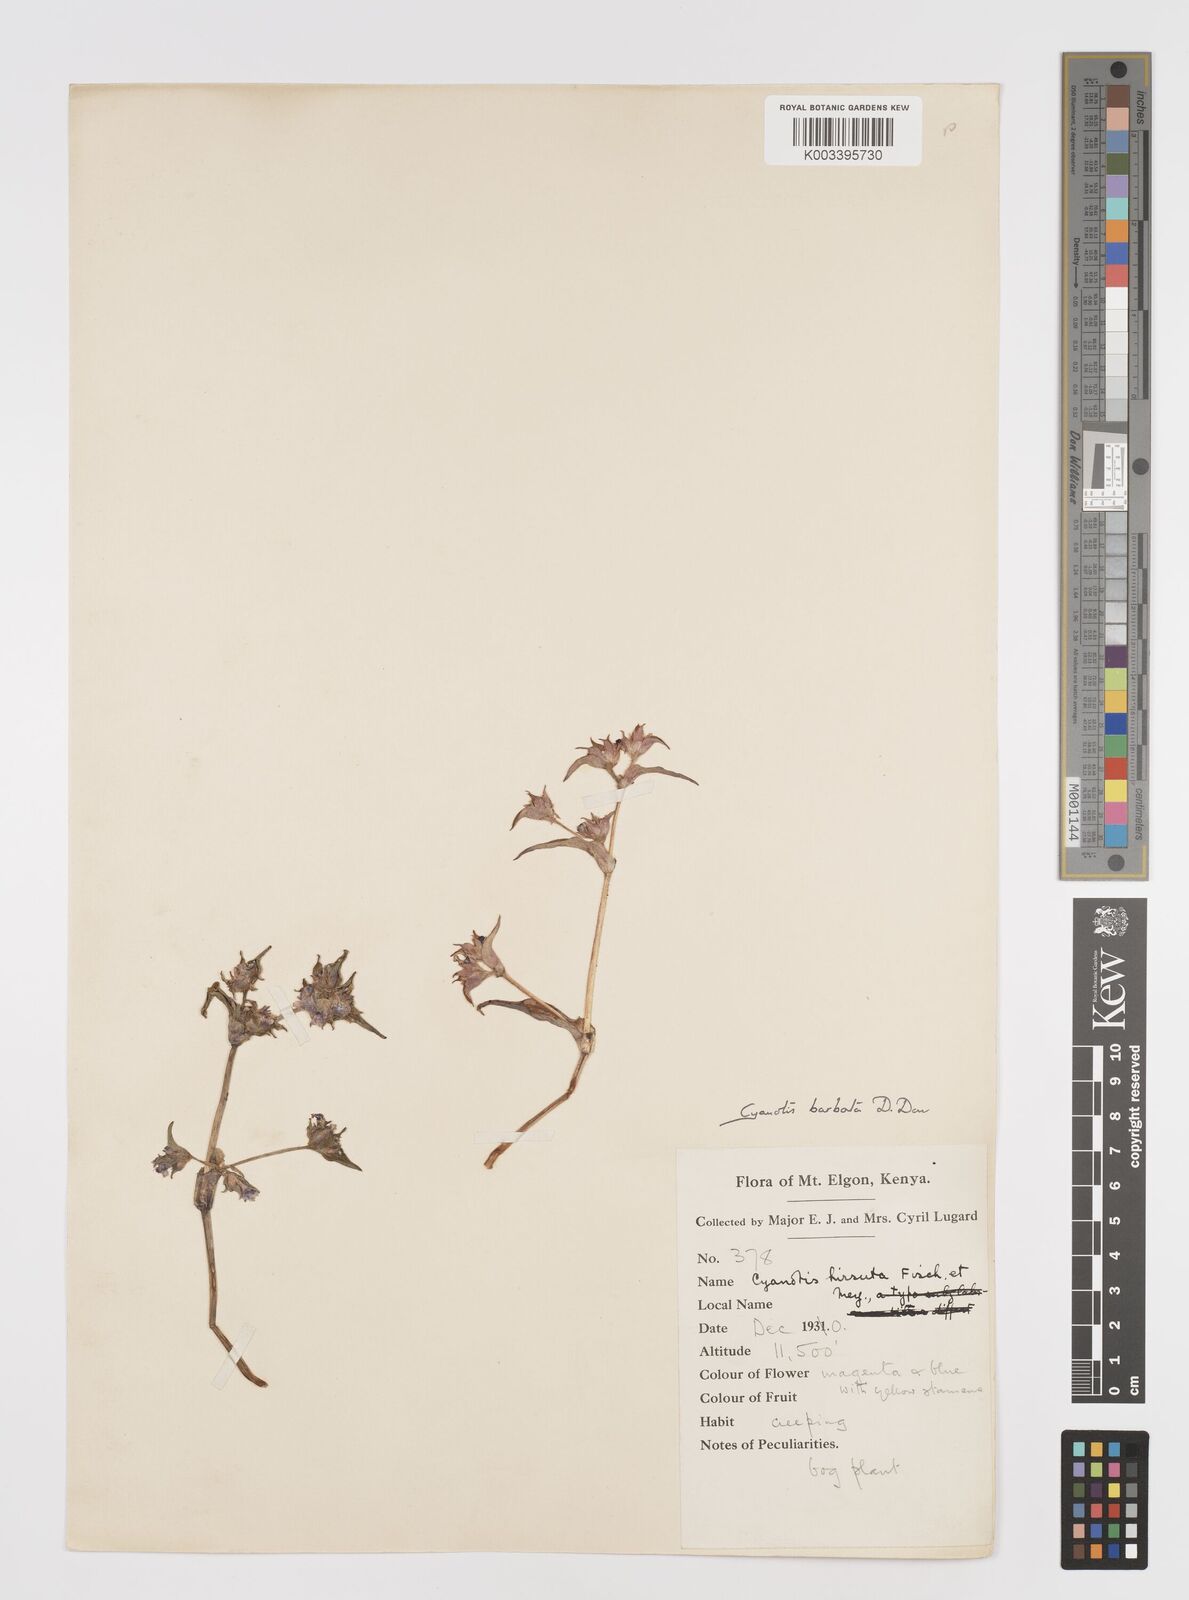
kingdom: Plantae
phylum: Tracheophyta
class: Liliopsida
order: Commelinales
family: Commelinaceae
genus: Cyanotis
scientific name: Cyanotis vaga
